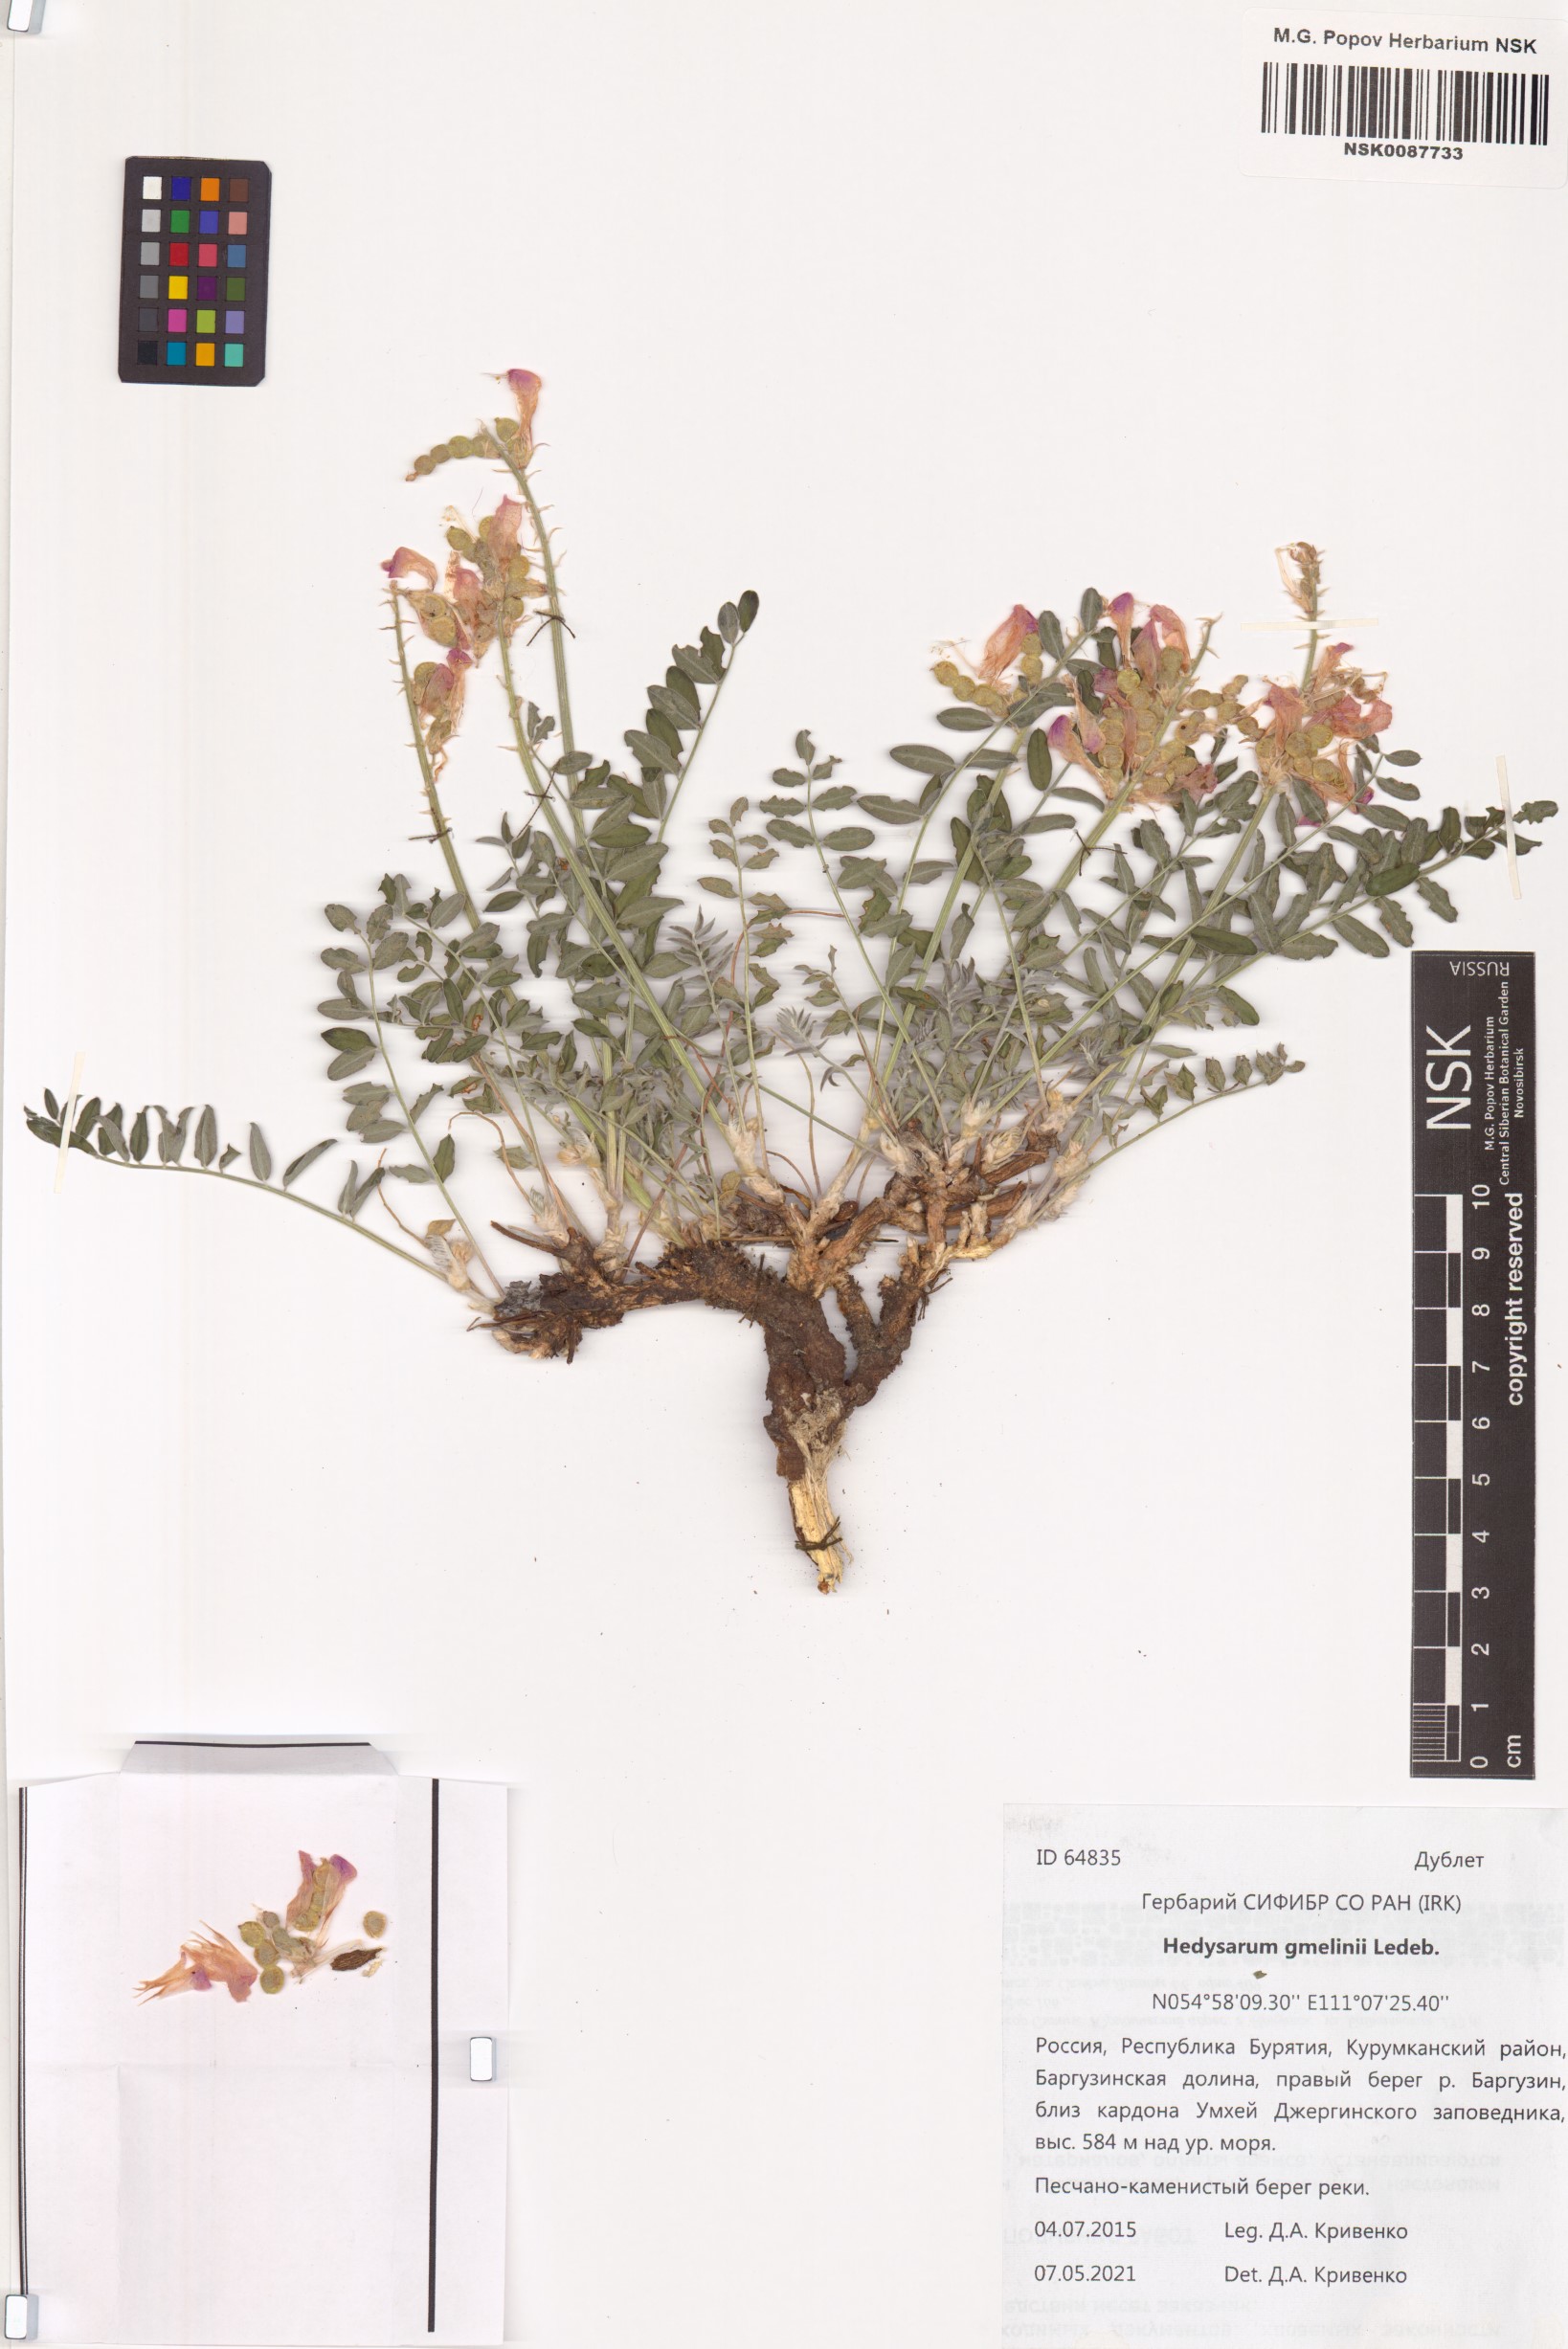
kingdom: Plantae
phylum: Tracheophyta
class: Magnoliopsida
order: Fabales
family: Fabaceae
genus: Hedysarum
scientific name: Hedysarum gmelinii
